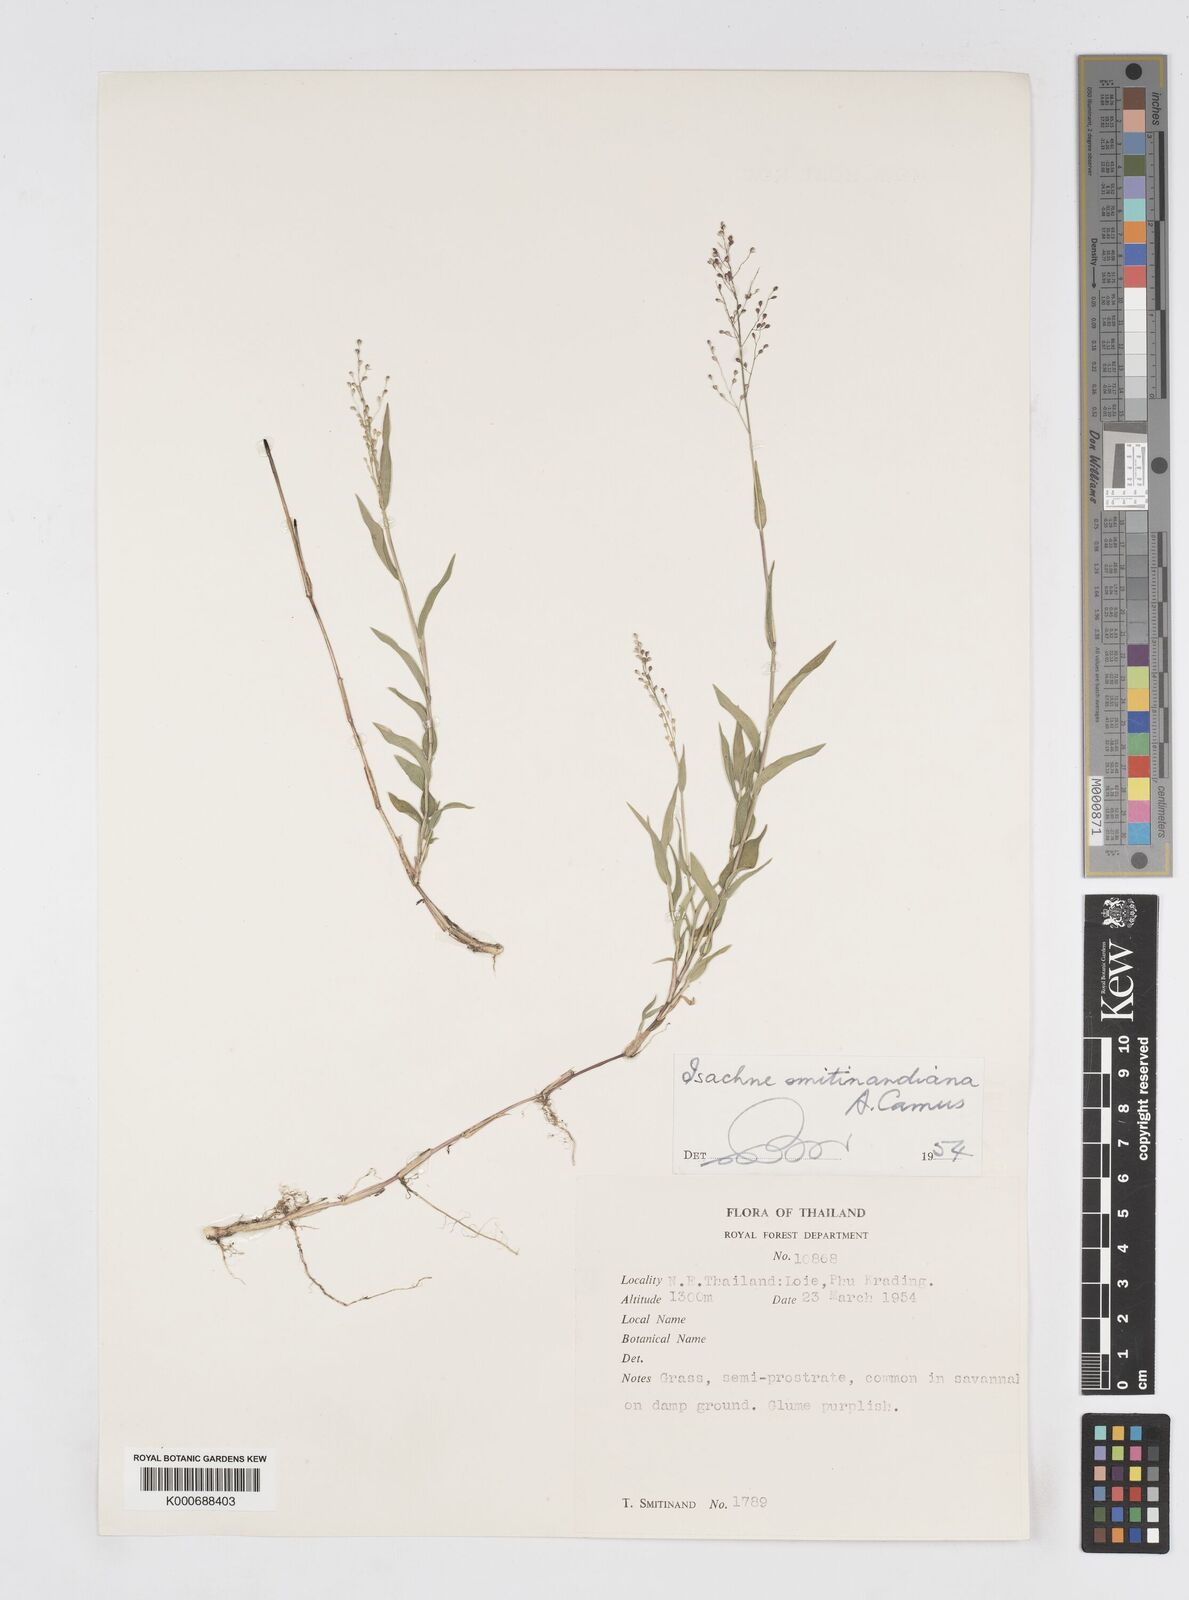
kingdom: Plantae
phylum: Tracheophyta
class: Liliopsida
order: Poales
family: Poaceae
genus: Isachne
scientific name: Isachne smitinandiana
